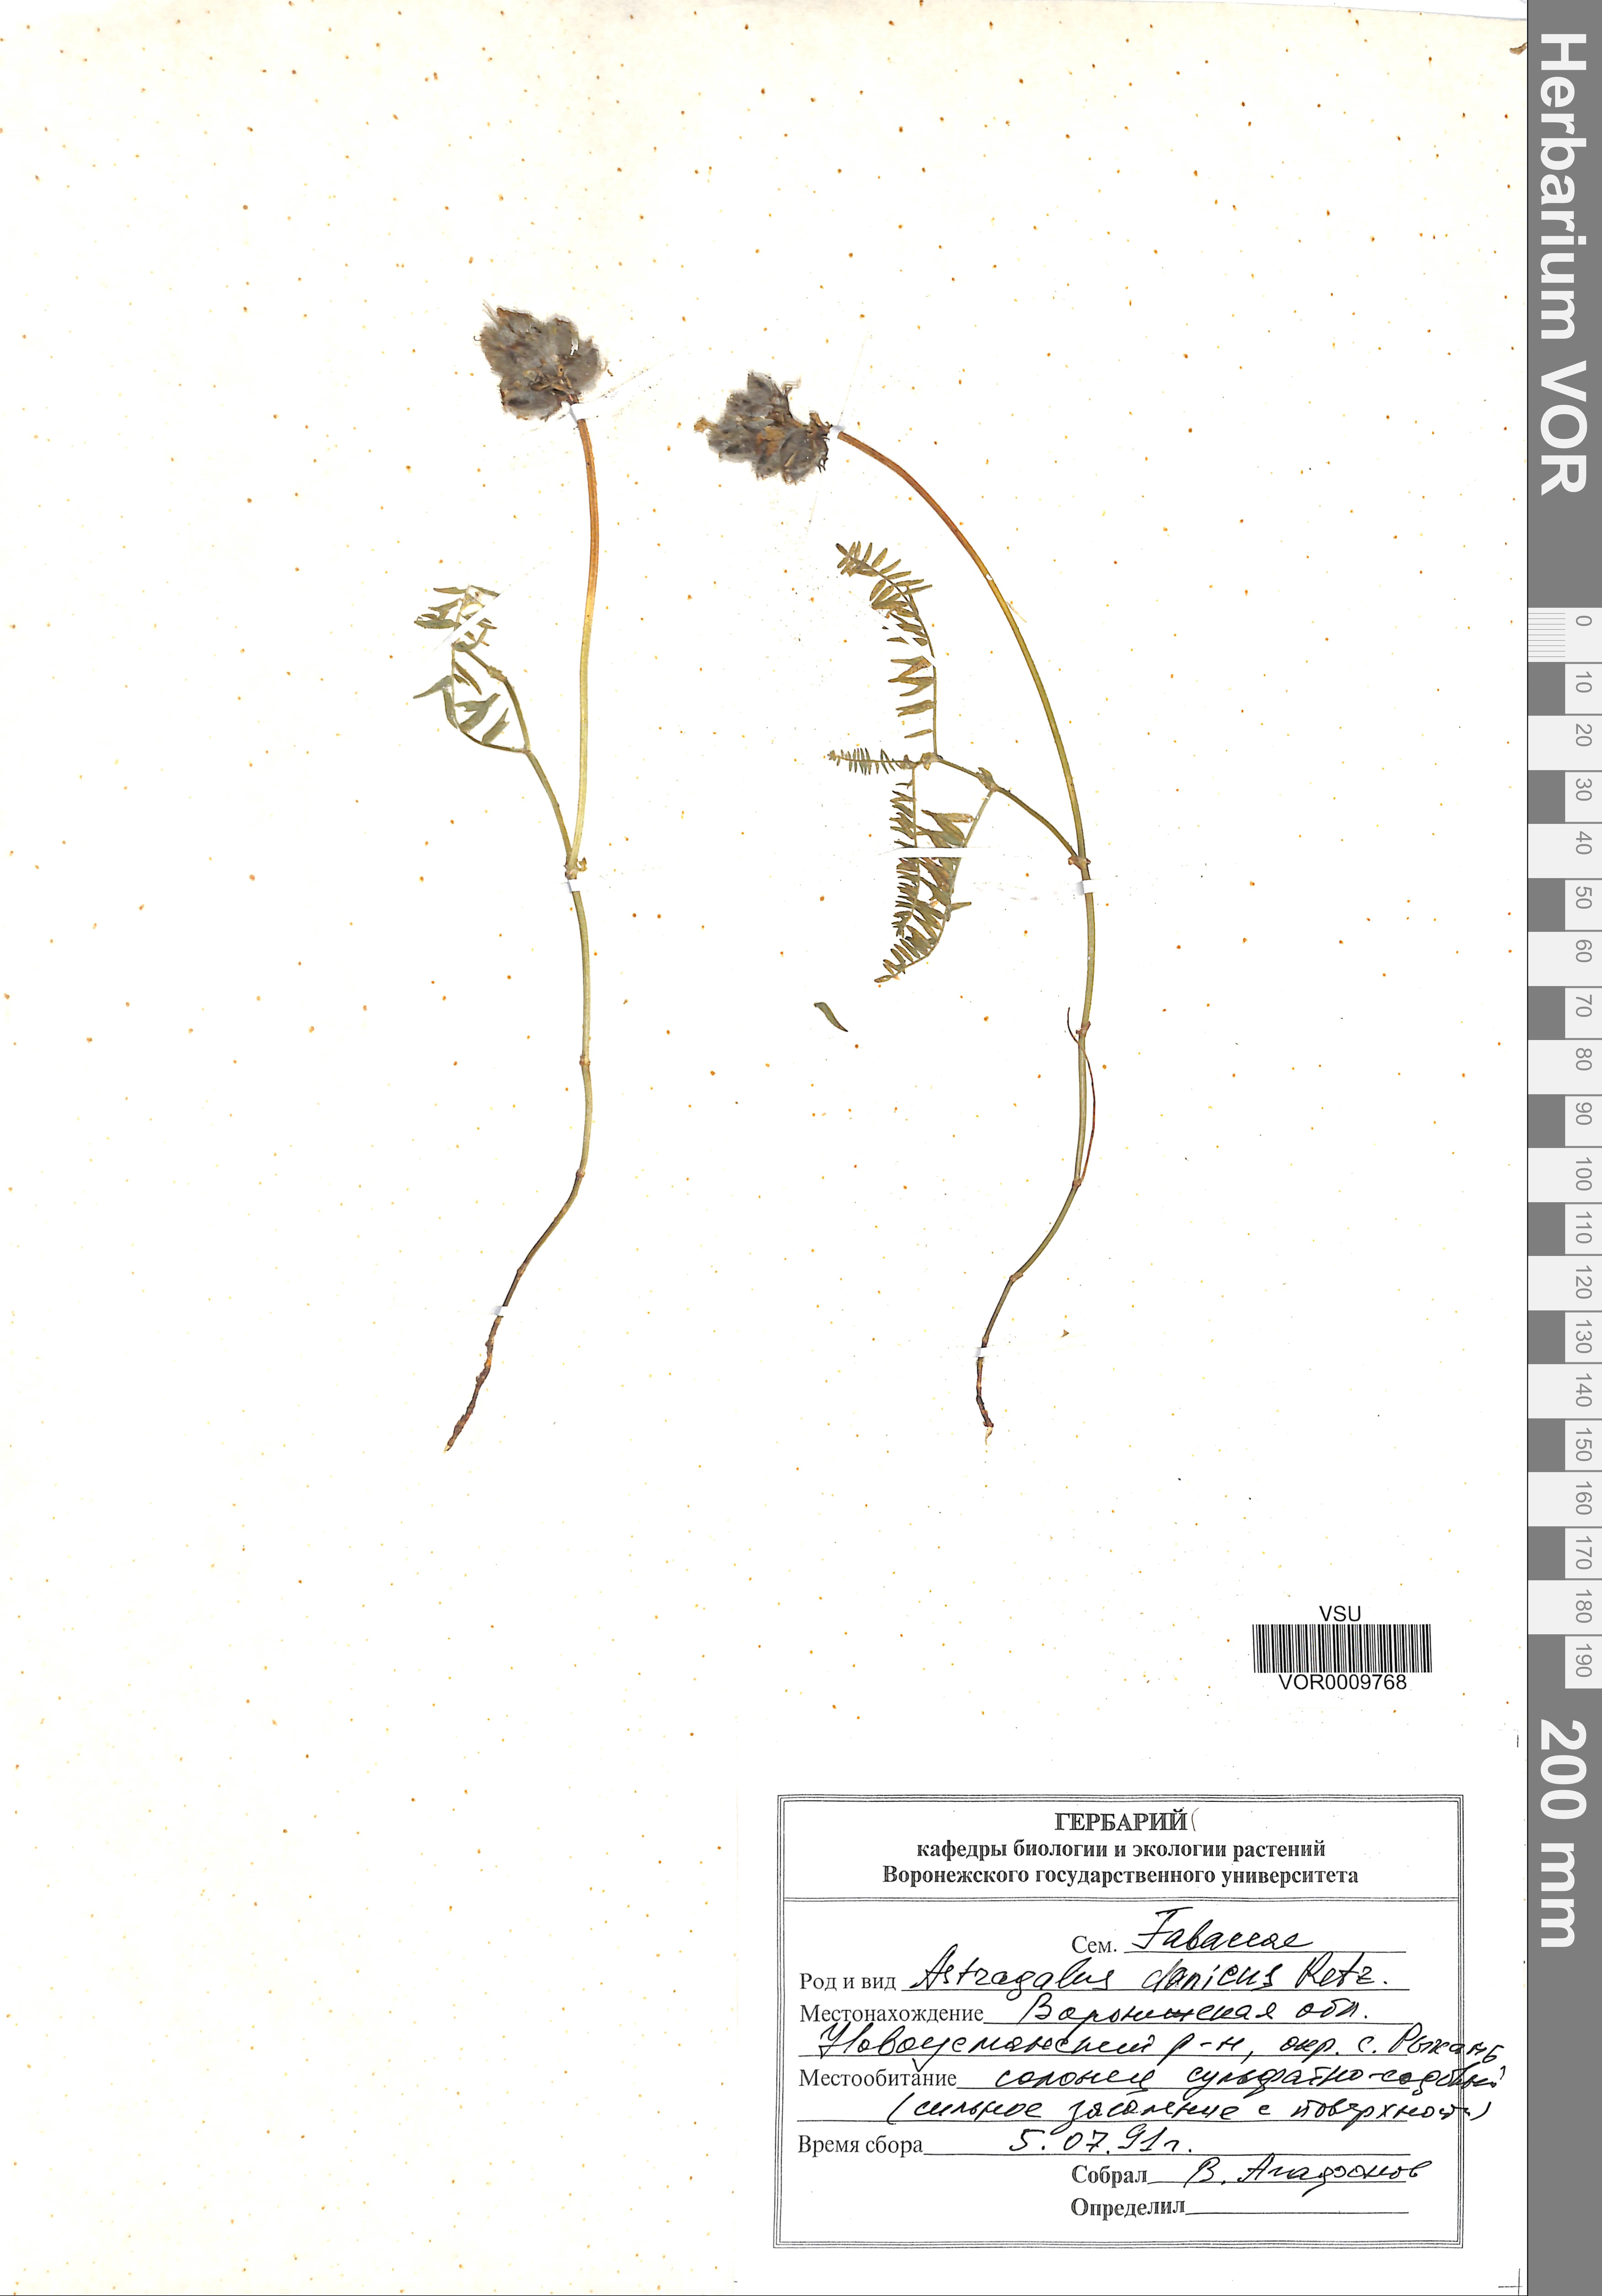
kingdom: Plantae
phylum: Tracheophyta
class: Magnoliopsida
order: Fabales
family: Fabaceae
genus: Astragalus
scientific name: Astragalus danicus
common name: Purple milk-vetch
